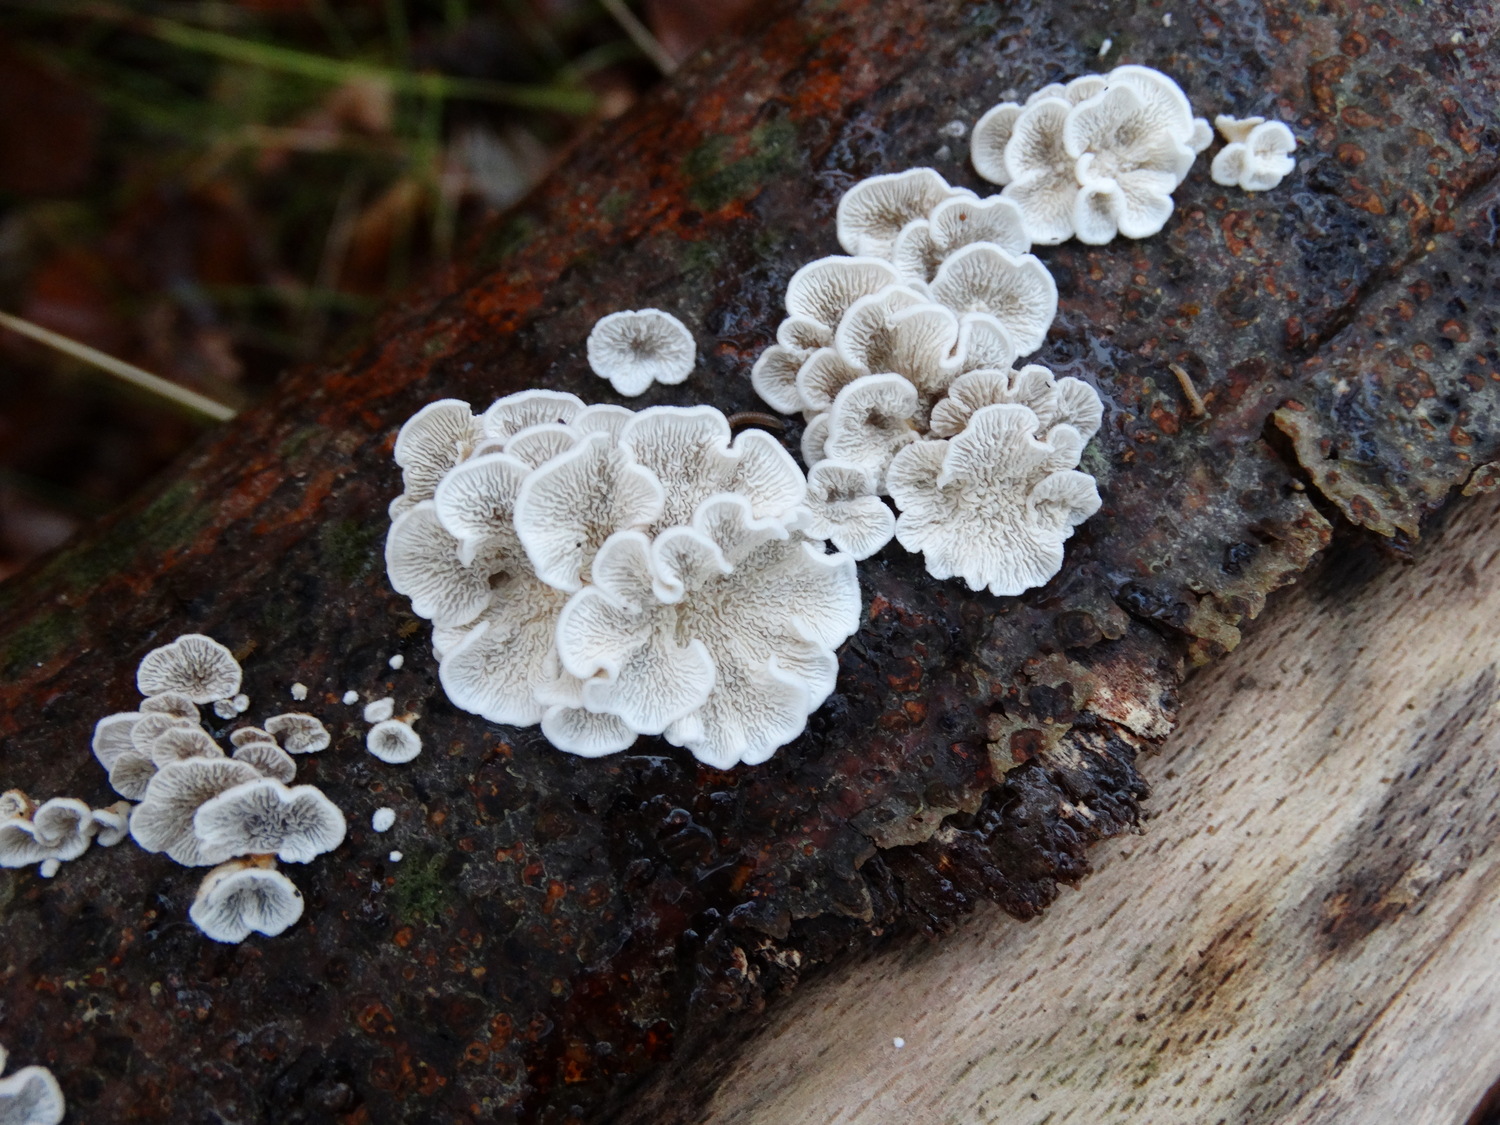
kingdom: Fungi
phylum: Basidiomycota
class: Agaricomycetes
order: Amylocorticiales
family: Amylocorticiaceae
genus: Plicaturopsis
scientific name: Plicaturopsis crispa
